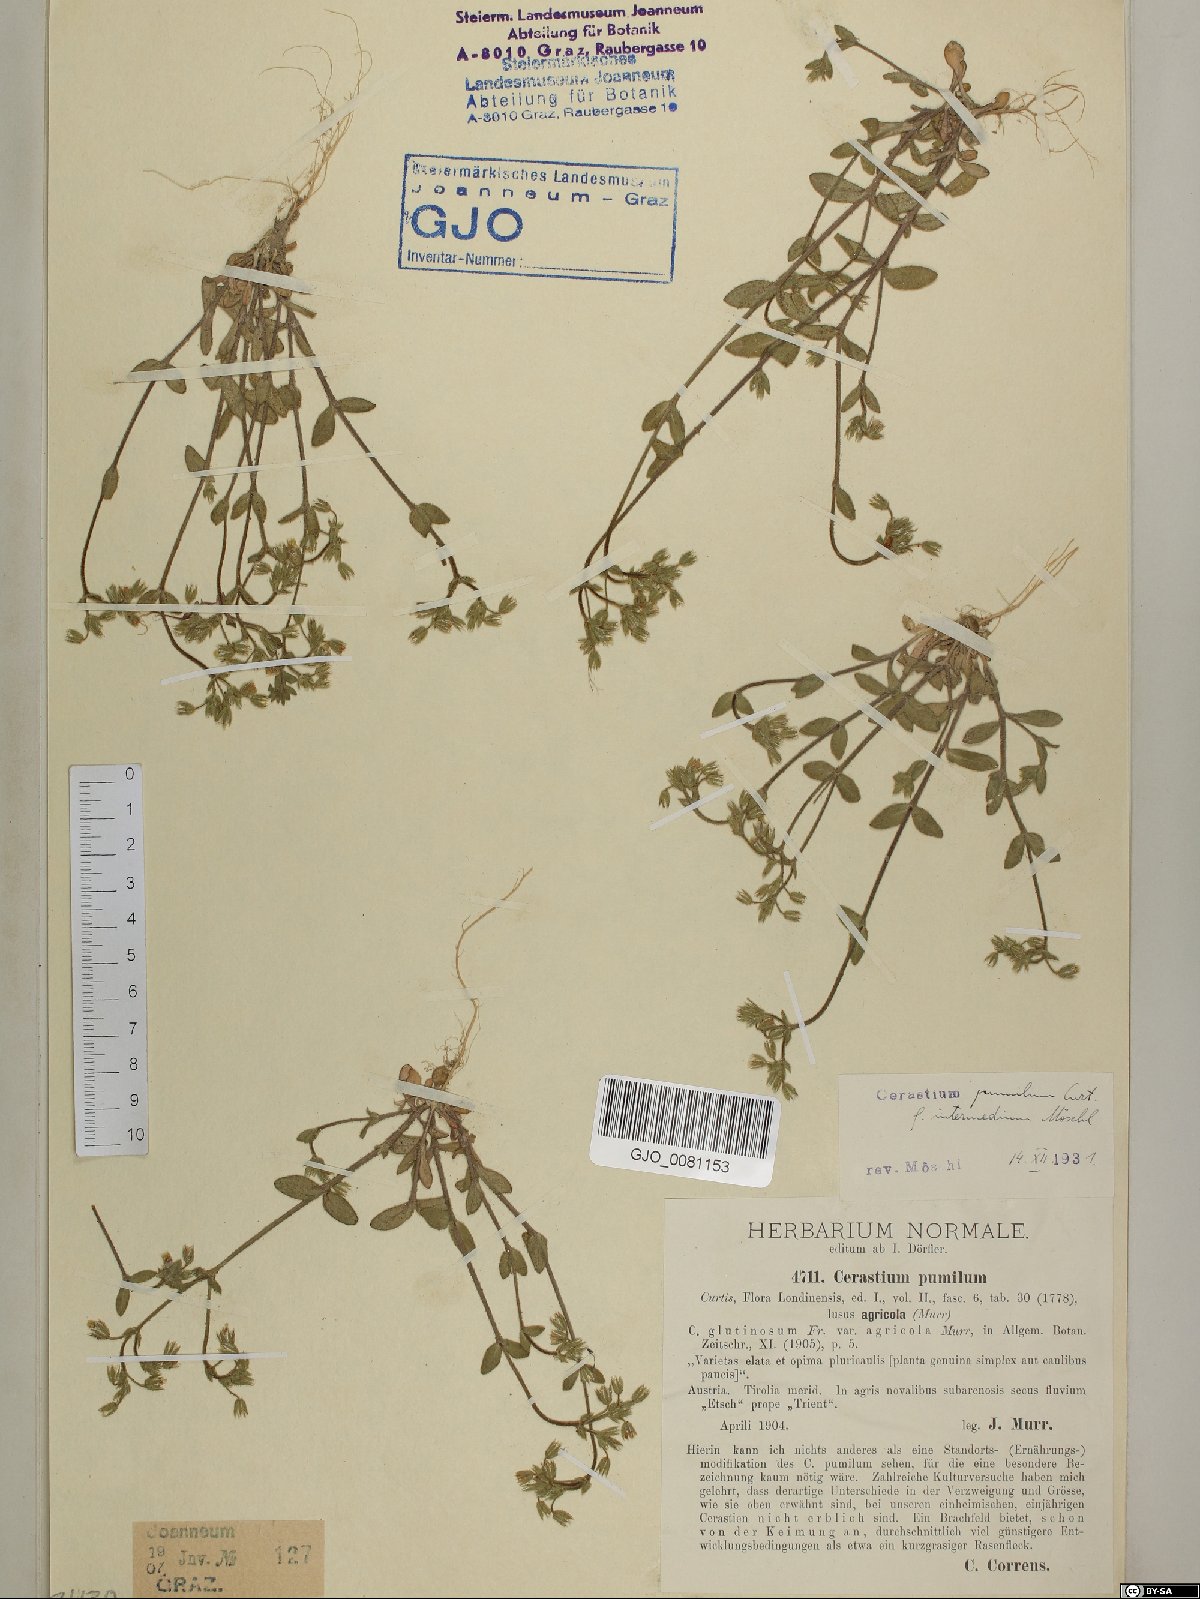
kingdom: Plantae
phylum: Tracheophyta
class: Magnoliopsida
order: Caryophyllales
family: Caryophyllaceae
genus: Cerastium
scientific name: Cerastium pumilum
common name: Dwarf mouse-ear
